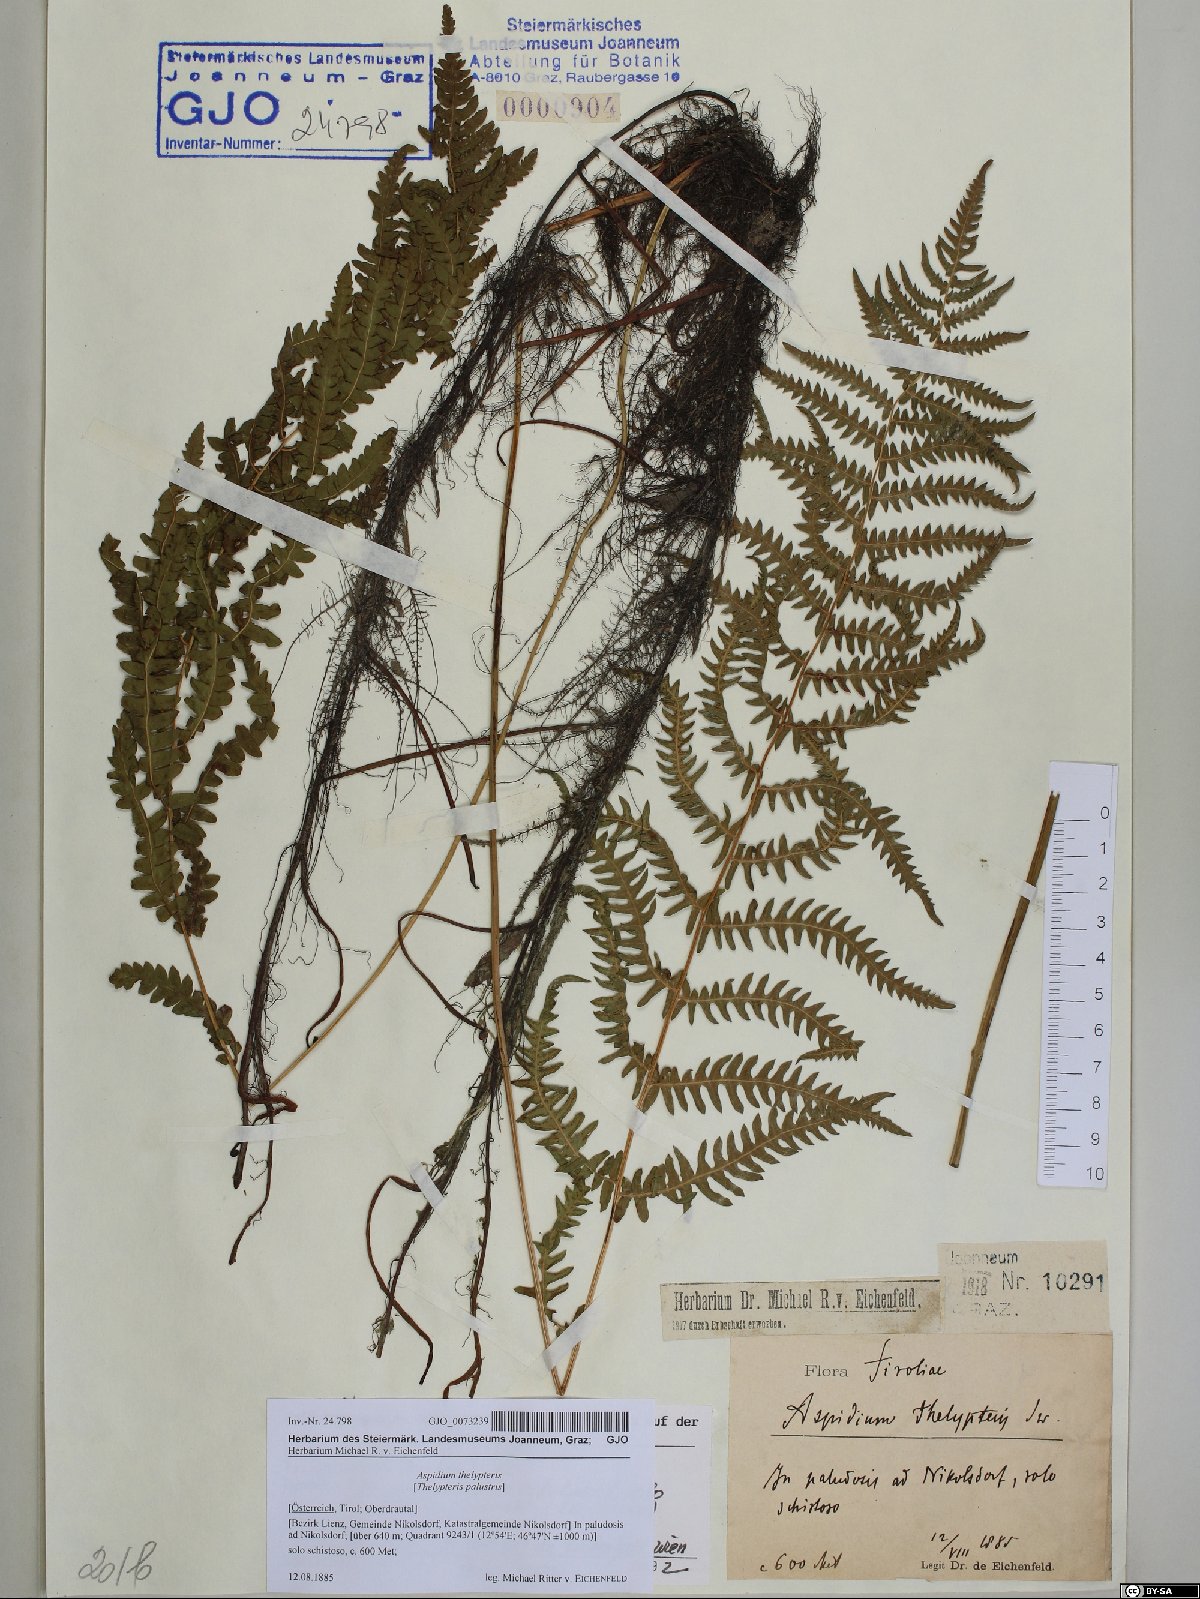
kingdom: Plantae
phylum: Tracheophyta
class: Polypodiopsida
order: Polypodiales
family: Thelypteridaceae
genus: Thelypteris
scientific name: Thelypteris palustris
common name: Marsh fern
